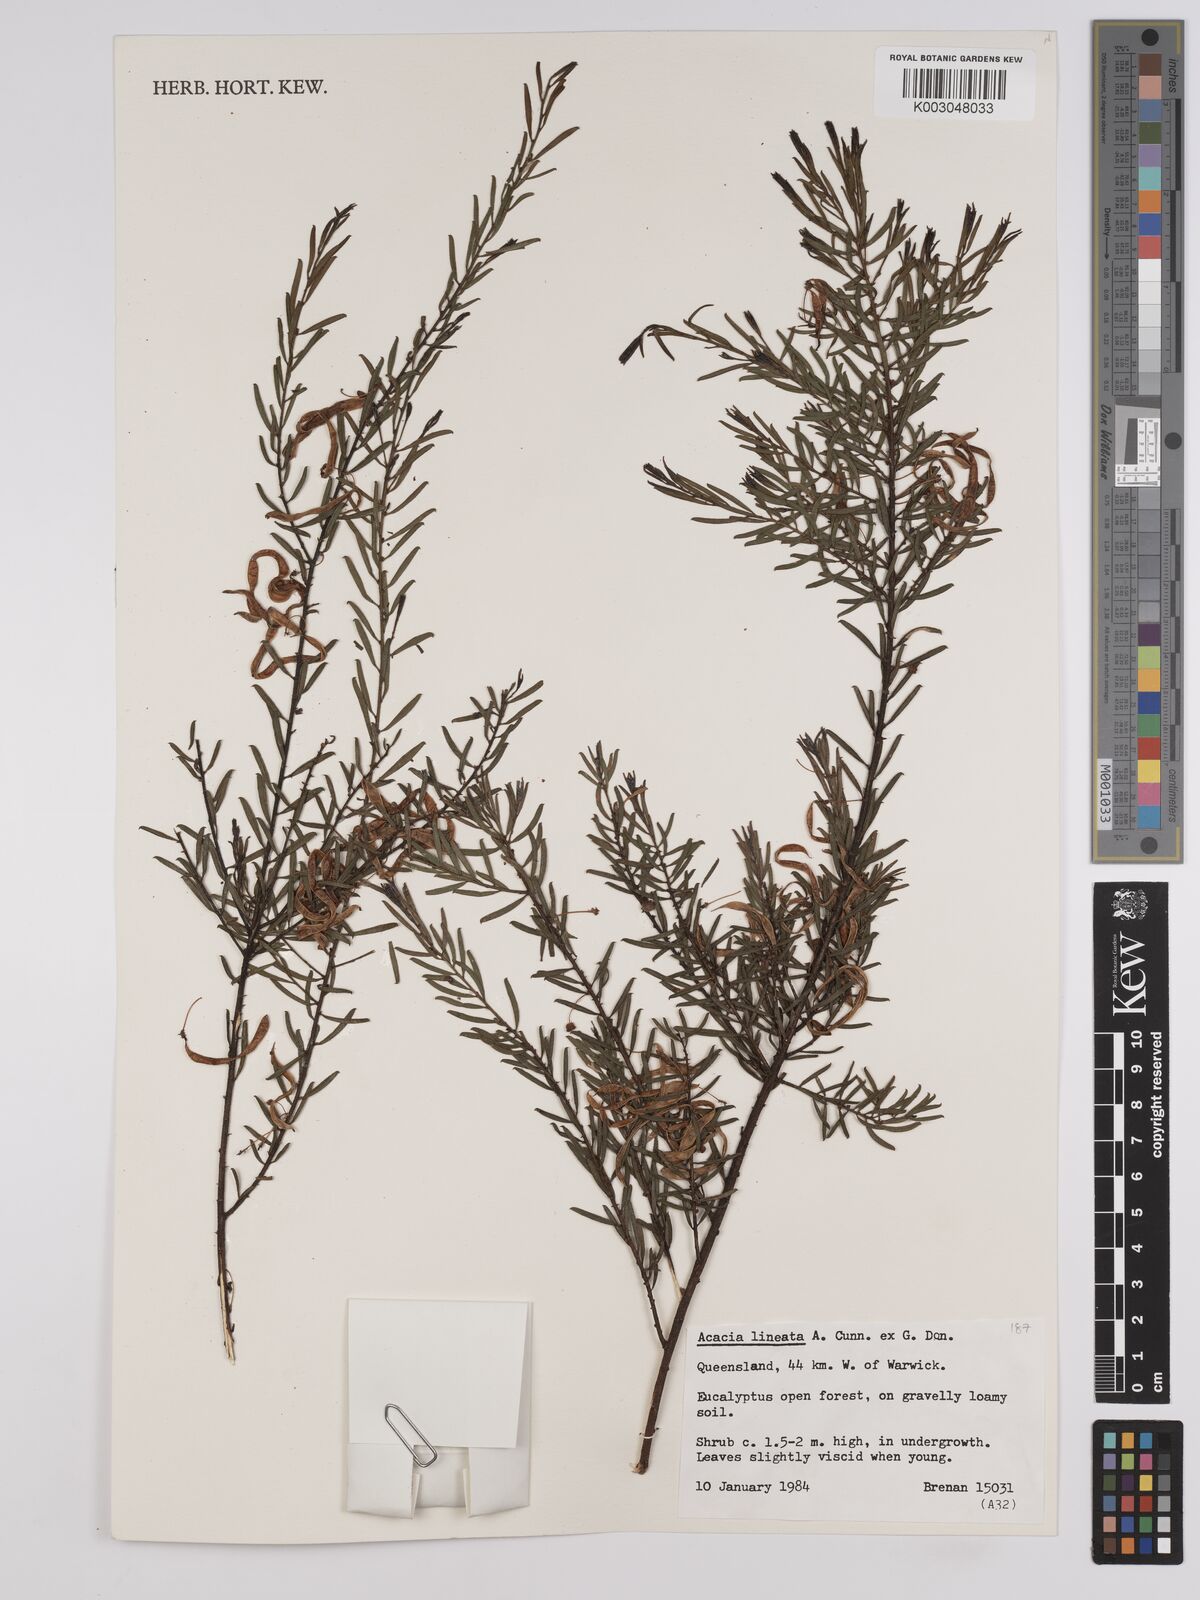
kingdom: Plantae
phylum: Tracheophyta
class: Magnoliopsida
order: Fabales
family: Fabaceae
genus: Acacia
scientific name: Acacia lineata
